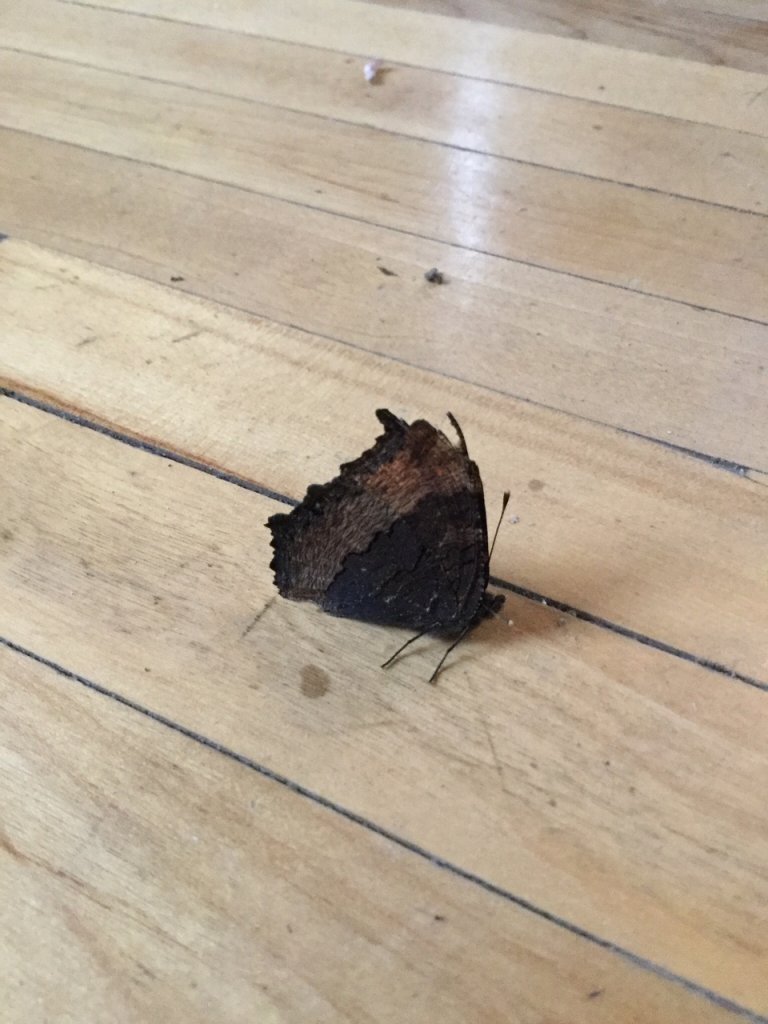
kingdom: Animalia
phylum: Arthropoda
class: Insecta
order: Lepidoptera
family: Nymphalidae
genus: Aglais
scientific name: Aglais milberti
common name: Milbert's Tortoiseshell
